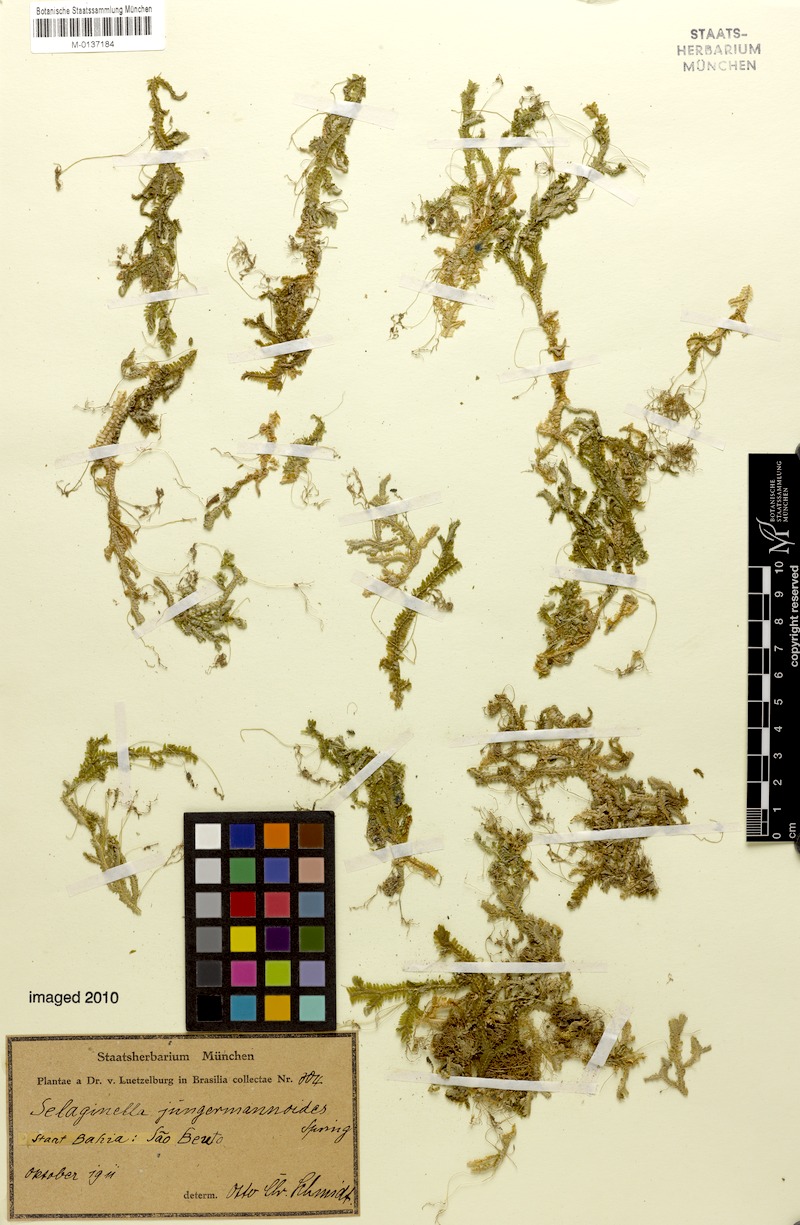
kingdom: Plantae
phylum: Tracheophyta
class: Lycopodiopsida
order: Selaginellales
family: Selaginellaceae
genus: Selaginella
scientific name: Selaginella jungermannioides
